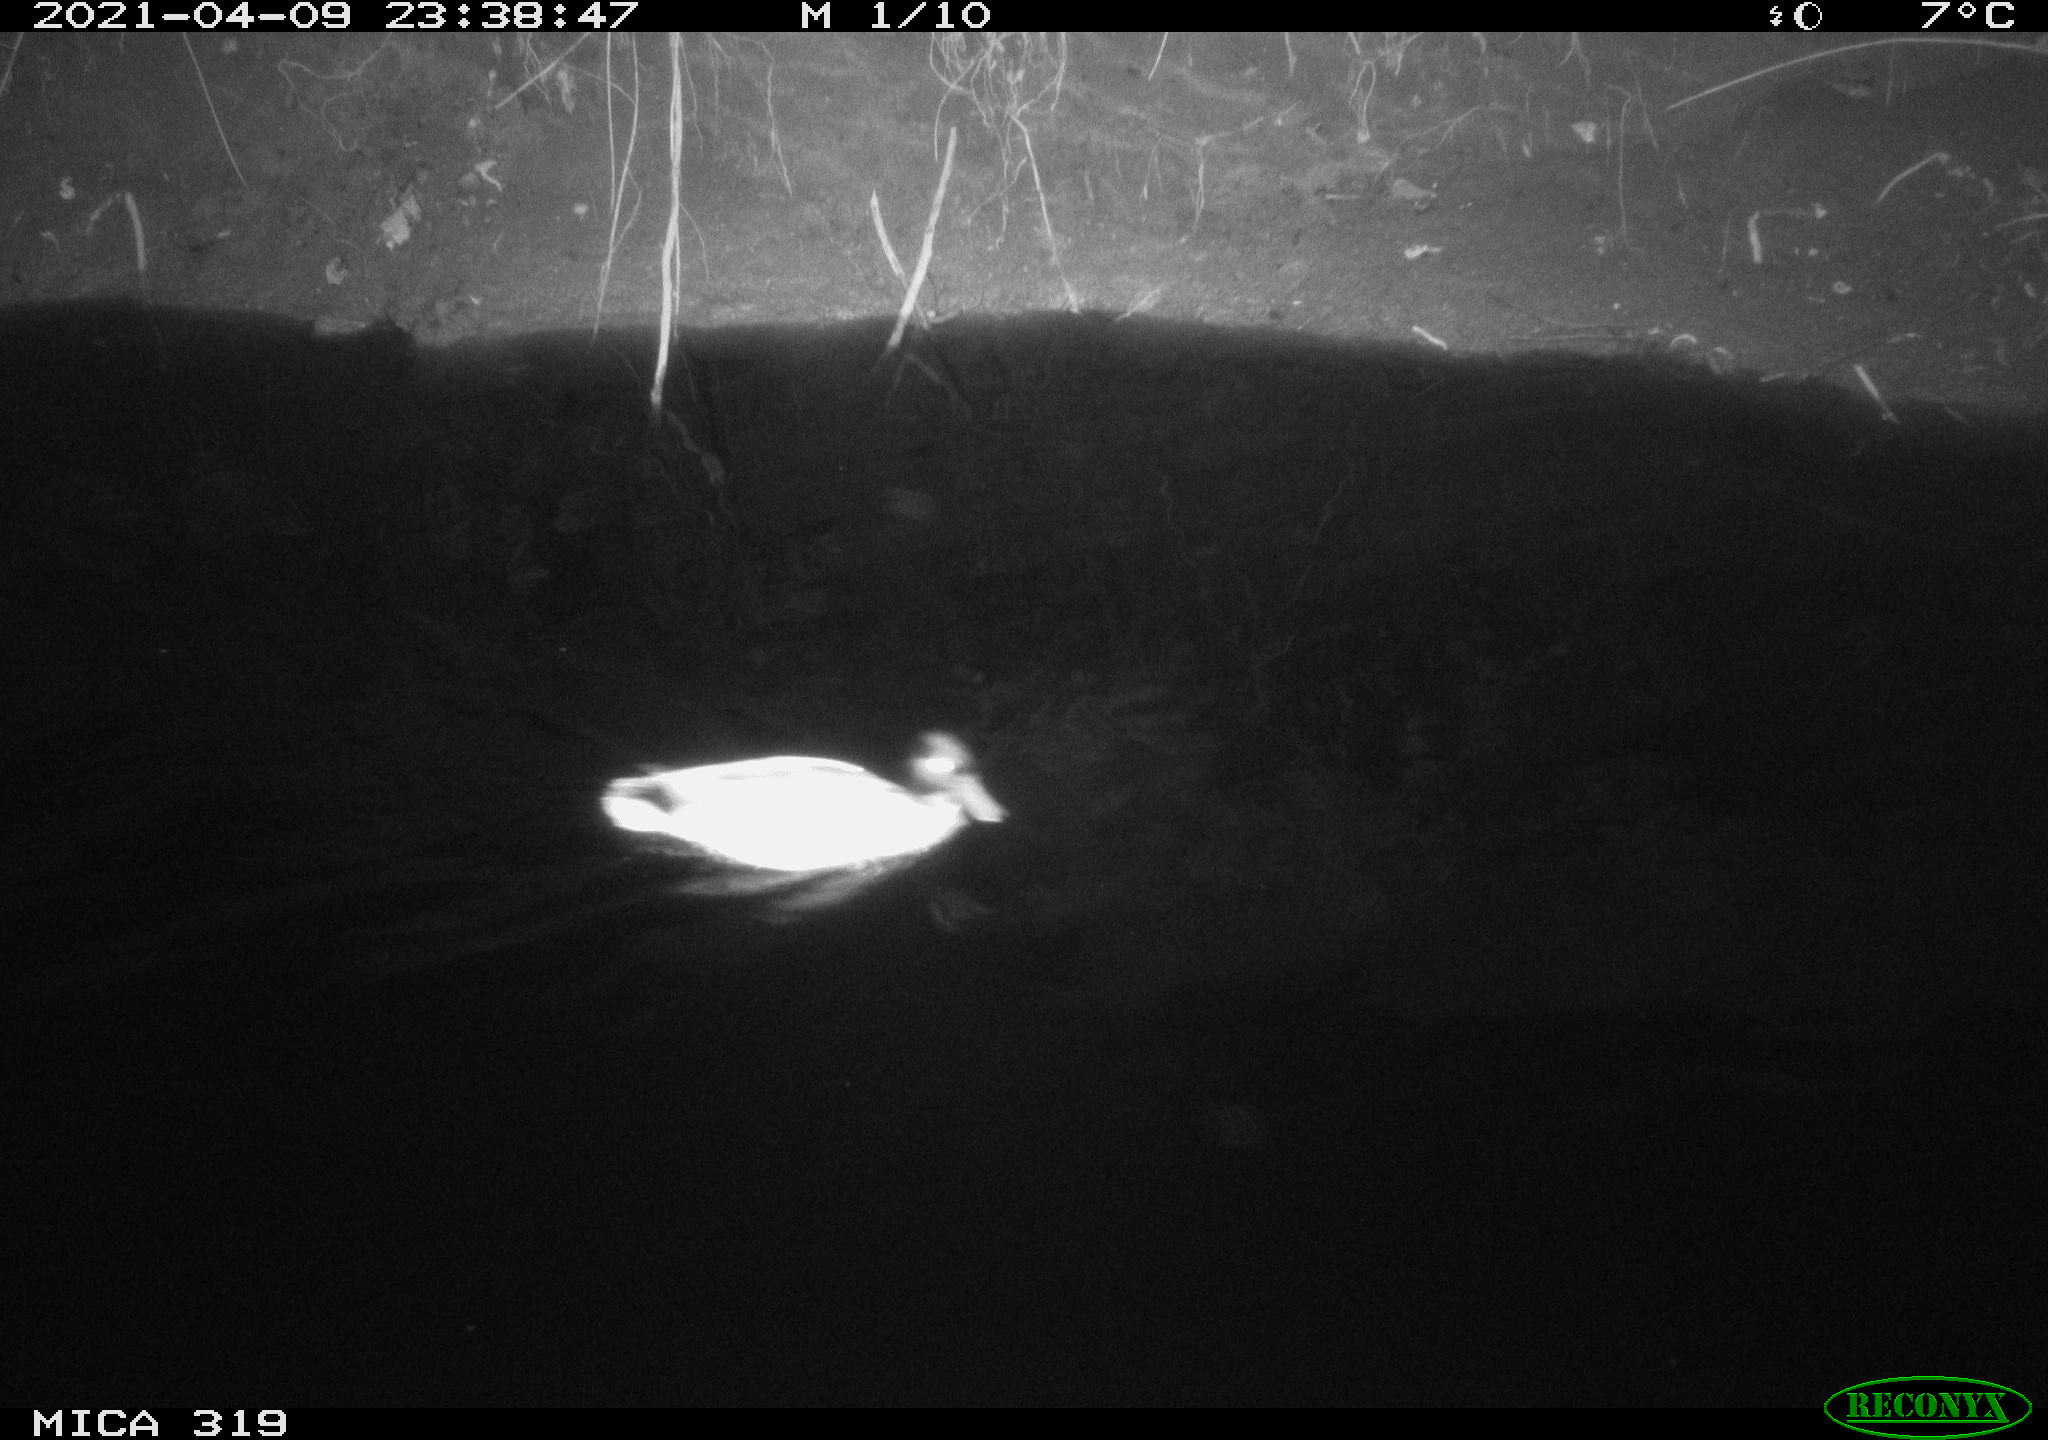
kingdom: Animalia
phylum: Chordata
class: Aves
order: Anseriformes
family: Anatidae
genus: Anas
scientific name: Anas platyrhynchos
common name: Mallard
